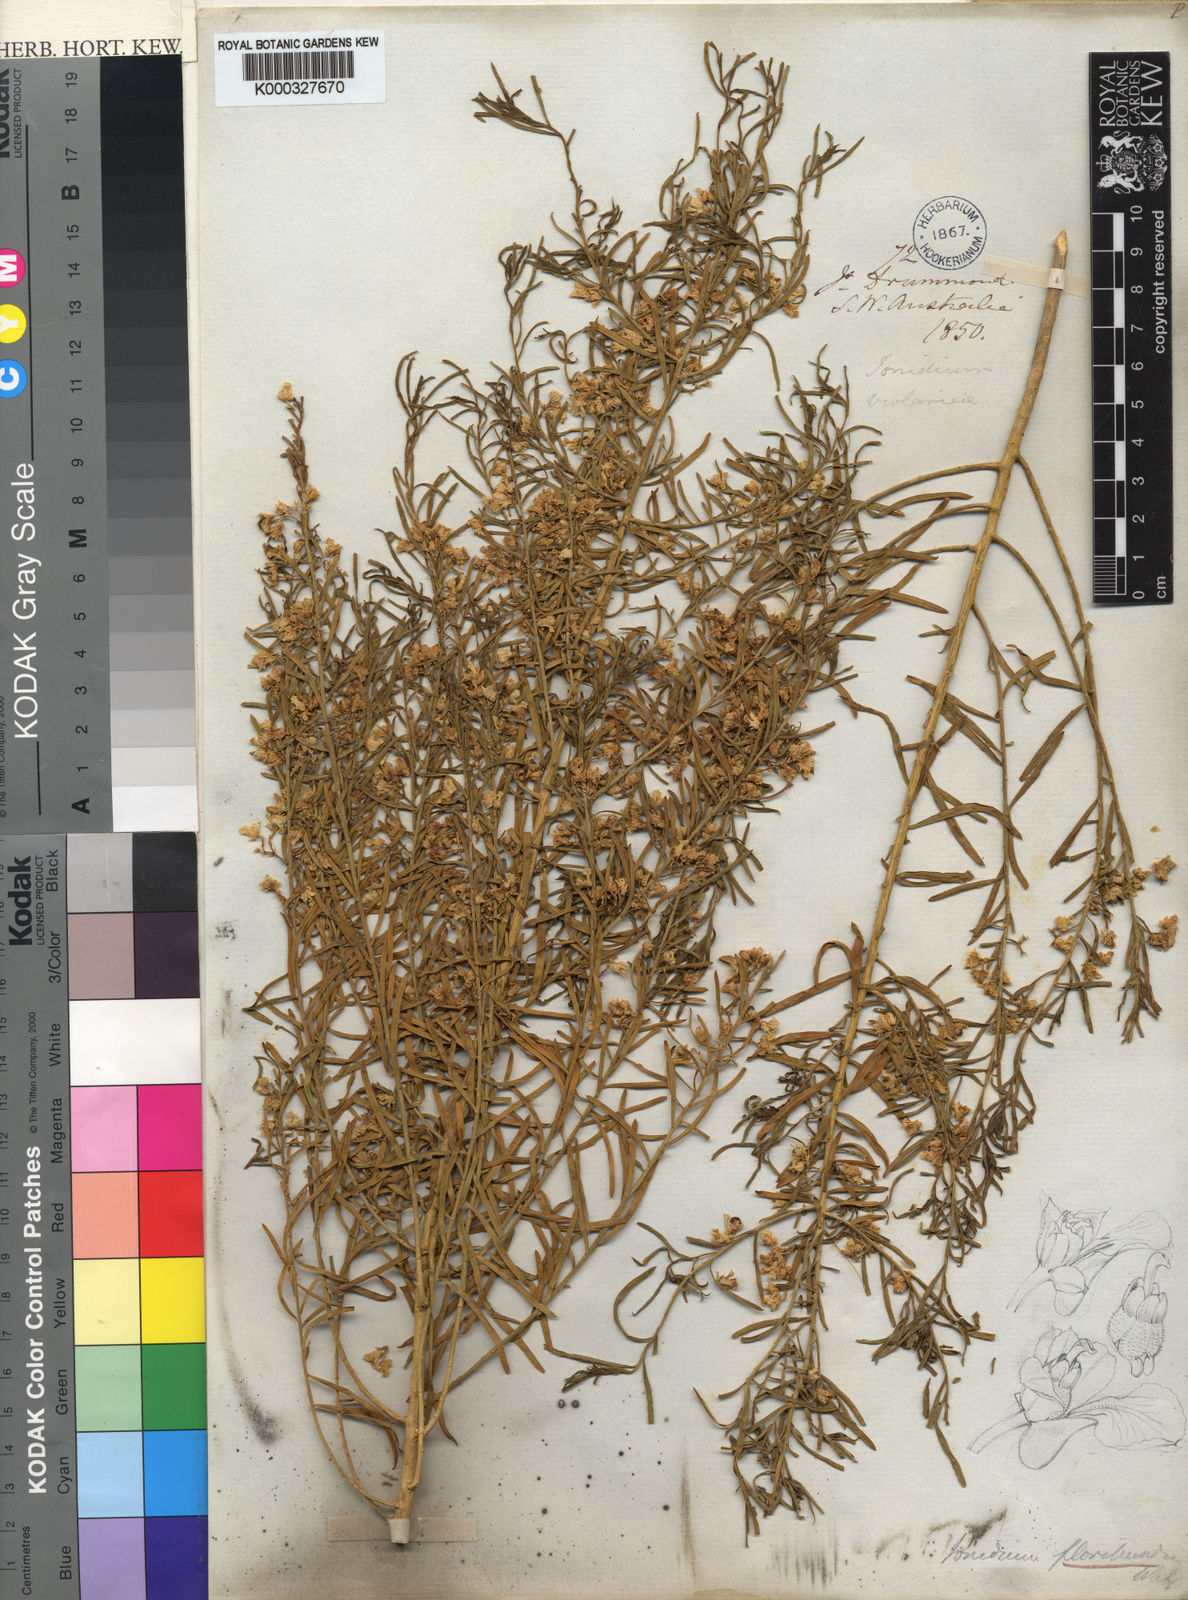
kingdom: Plantae
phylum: Tracheophyta
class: Magnoliopsida
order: Malpighiales
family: Violaceae
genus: Pigea
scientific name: Pigea floribunda
